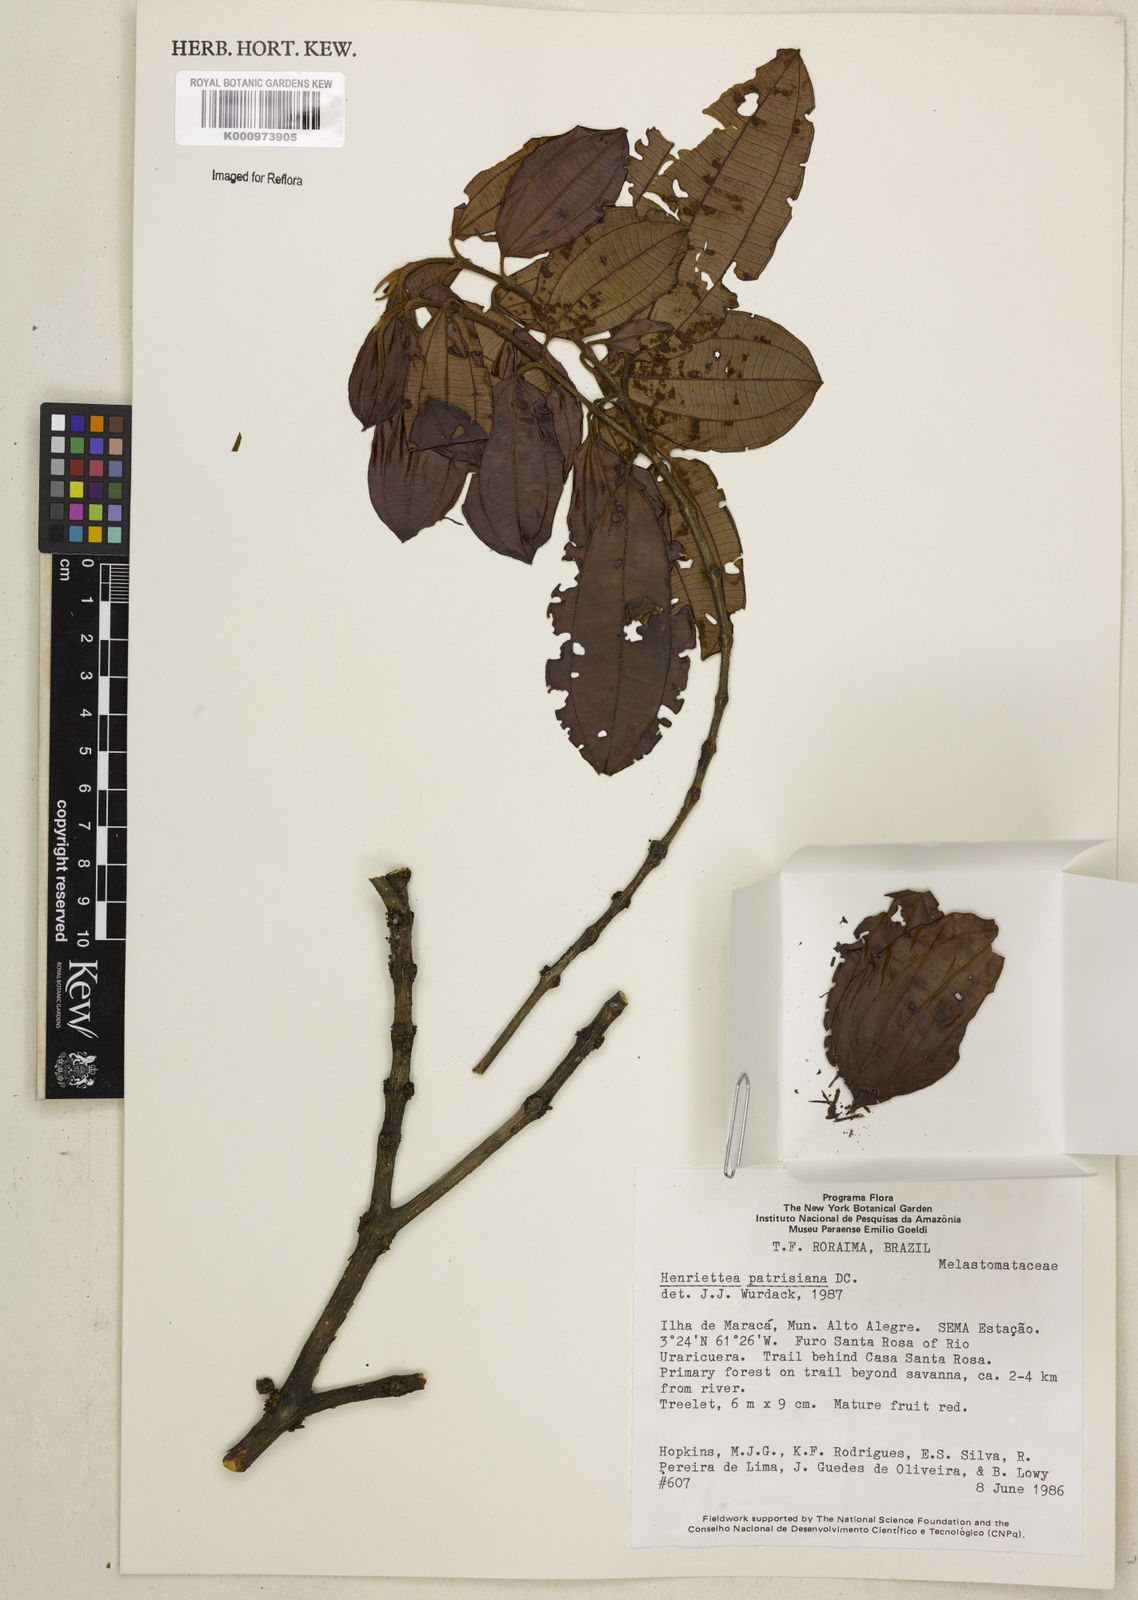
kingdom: Plantae
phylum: Tracheophyta
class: Magnoliopsida
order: Myrtales
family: Melastomataceae
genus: Henriettea
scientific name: Henriettea patrisiana
